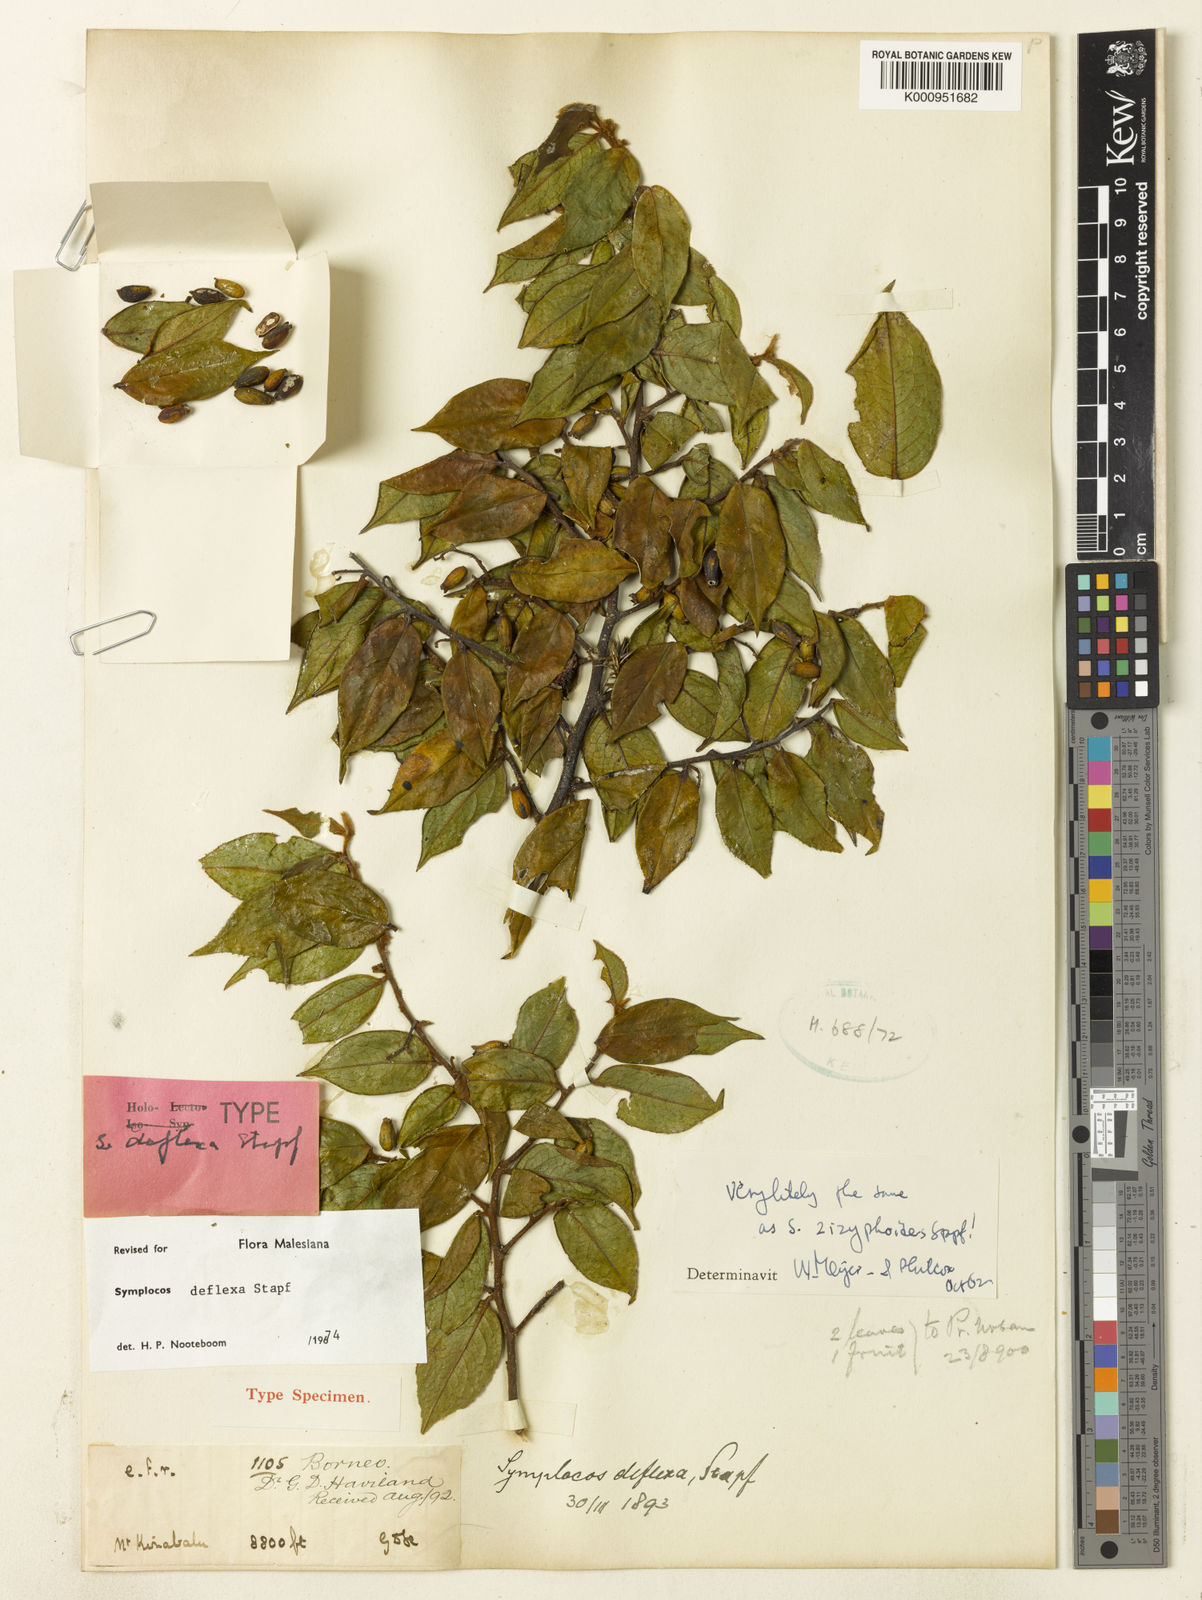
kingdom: Plantae
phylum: Tracheophyta
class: Magnoliopsida
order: Ericales
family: Symplocaceae
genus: Symplocos
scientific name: Symplocos deflexa
